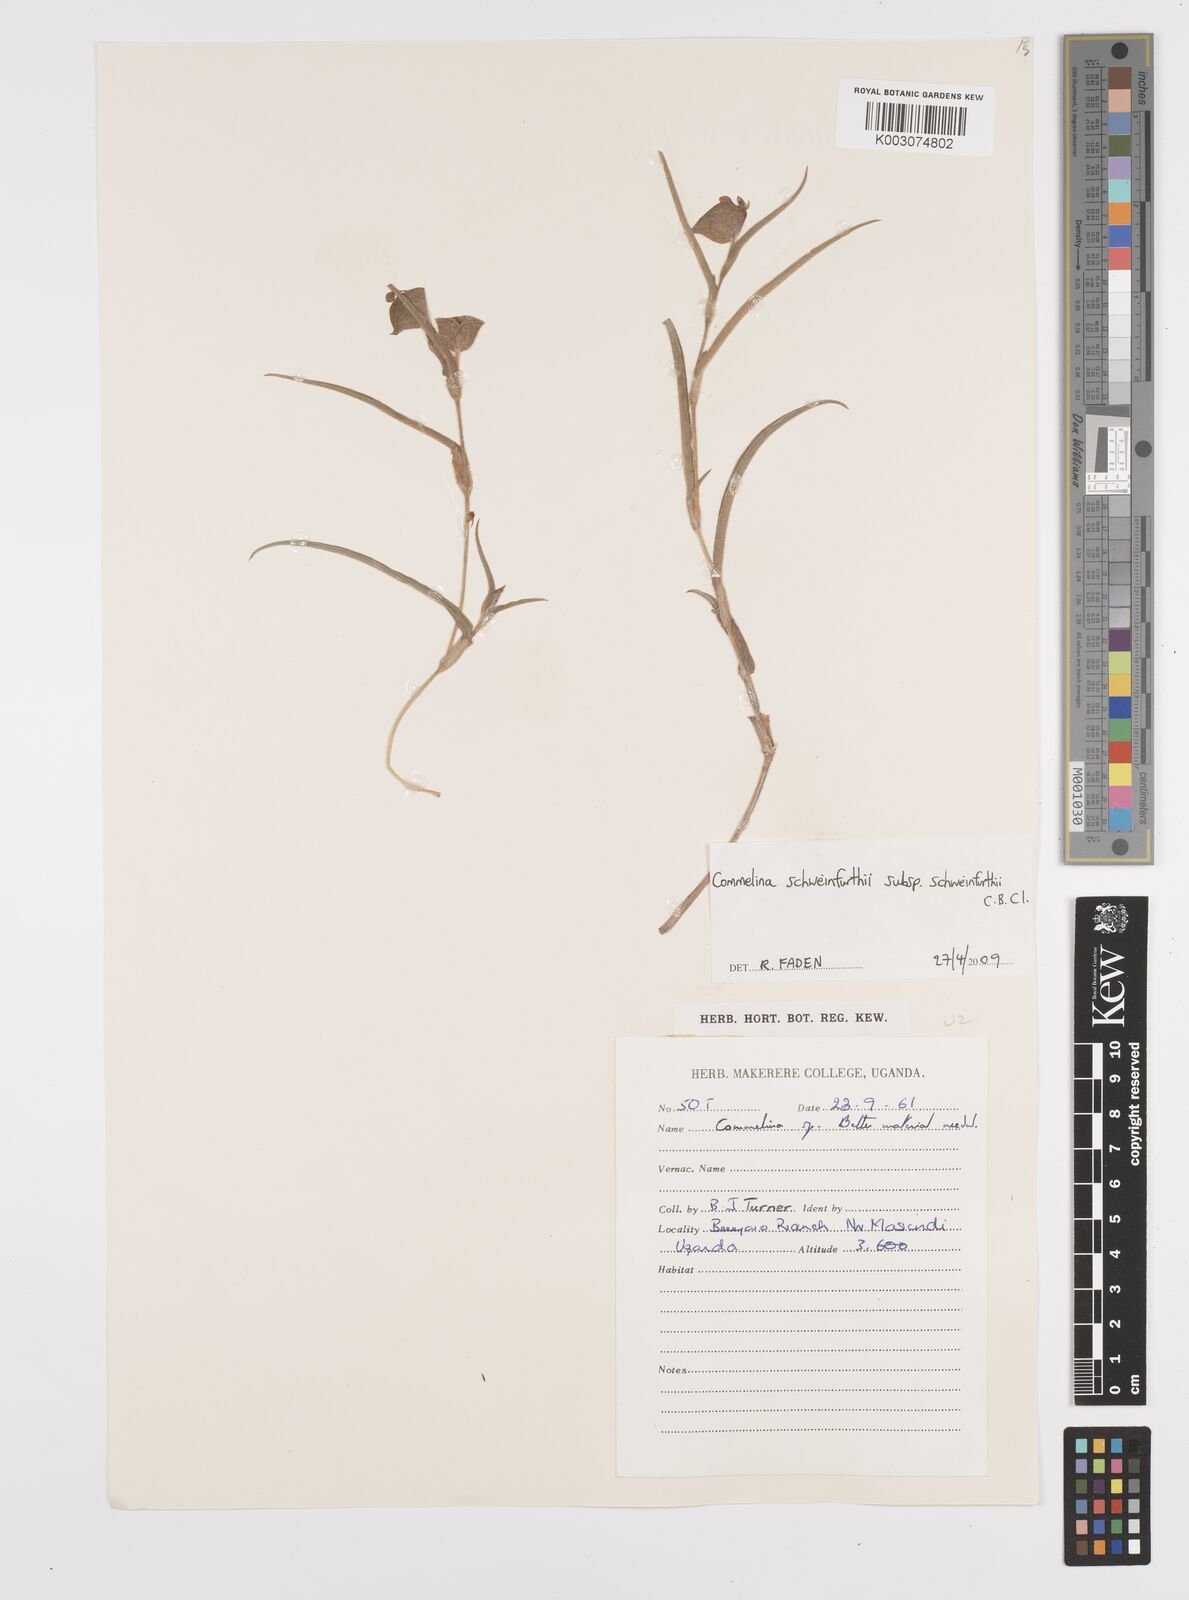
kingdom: Plantae
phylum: Tracheophyta
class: Liliopsida
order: Commelinales
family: Commelinaceae
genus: Commelina
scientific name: Commelina schweinfurthii
